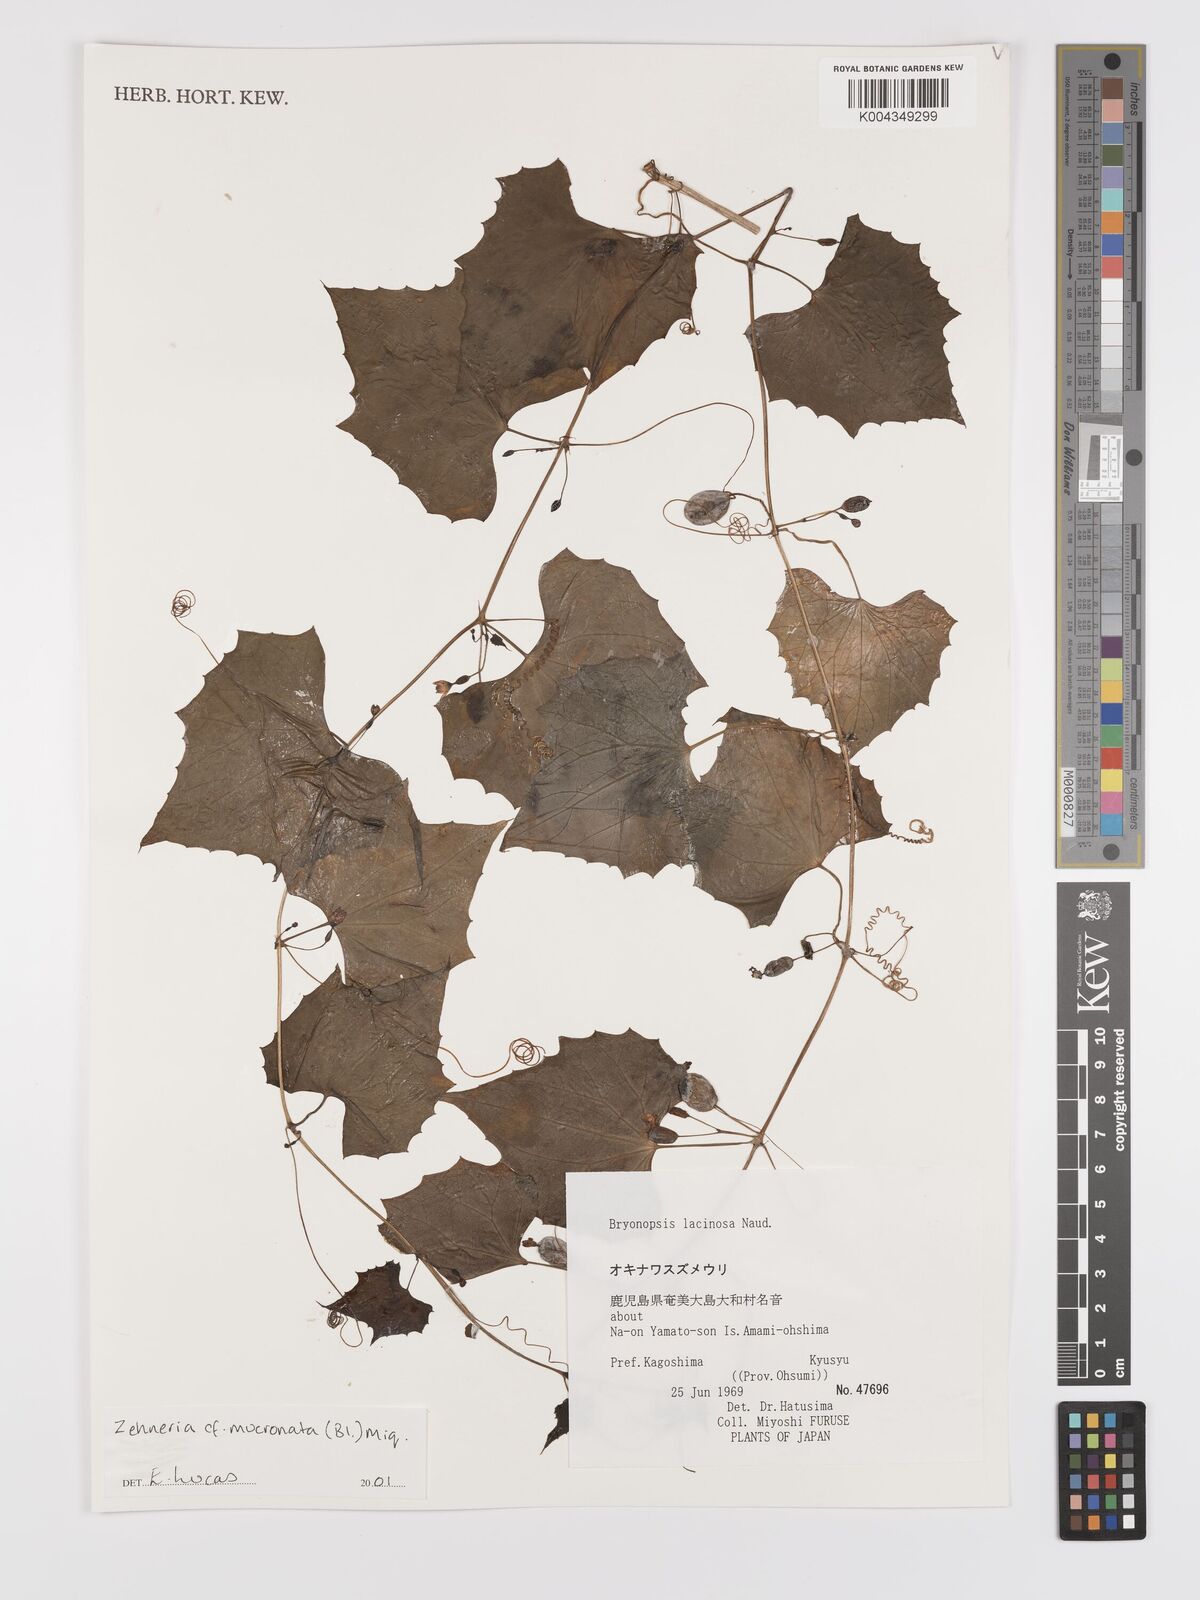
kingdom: Plantae
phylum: Tracheophyta
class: Magnoliopsida
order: Cucurbitales
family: Cucurbitaceae
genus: Zehneria
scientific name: Zehneria mucronata
